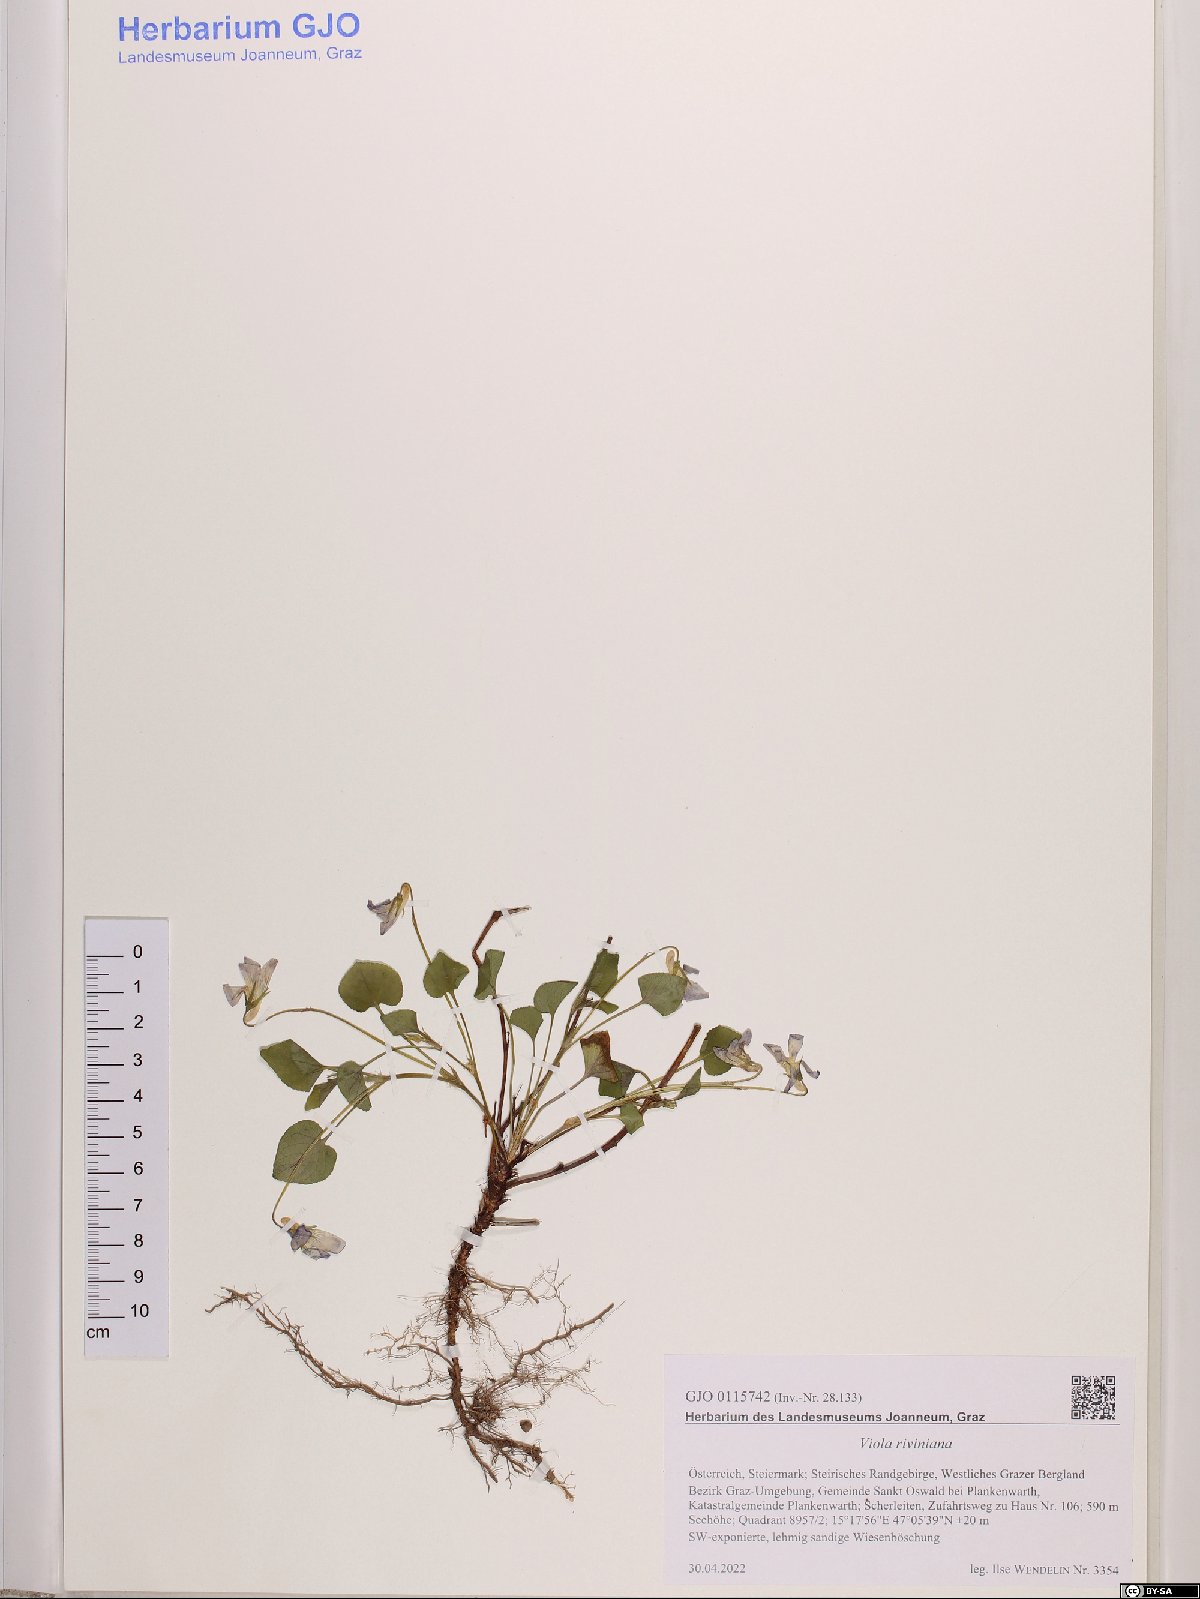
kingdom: Plantae
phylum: Tracheophyta
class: Magnoliopsida
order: Malpighiales
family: Violaceae
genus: Viola
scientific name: Viola riviniana
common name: Common dog-violet
